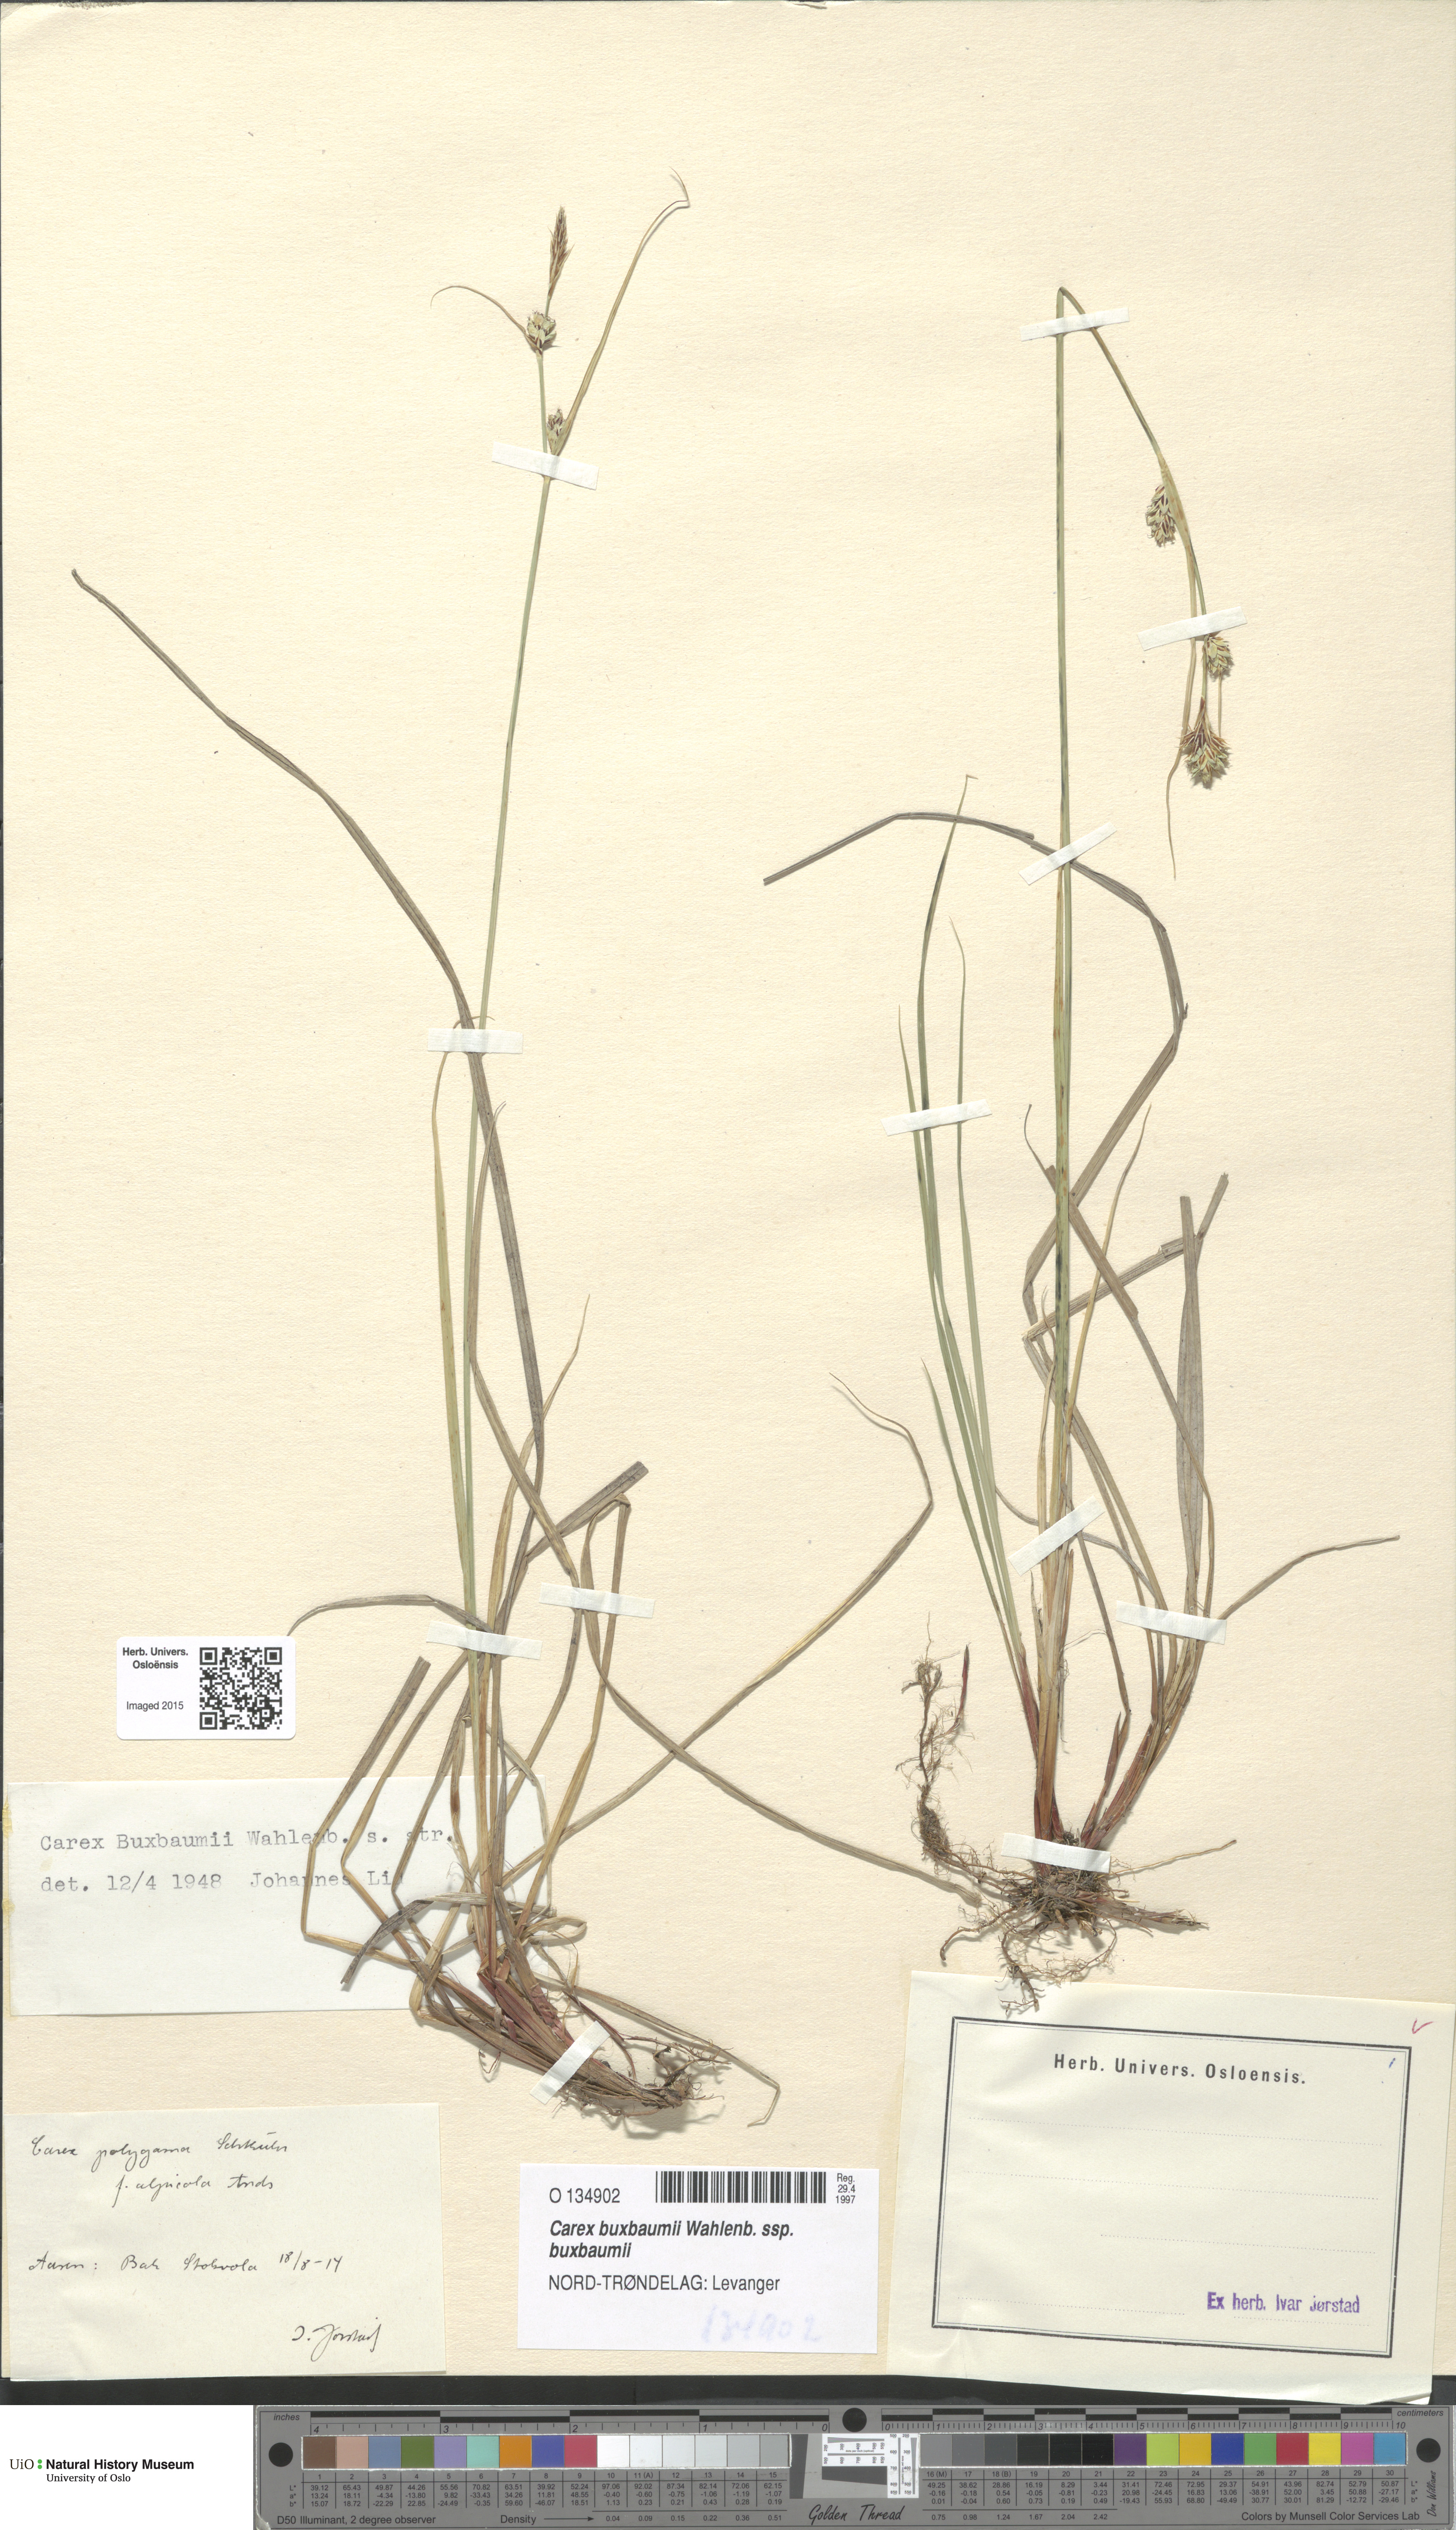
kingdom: Plantae
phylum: Tracheophyta
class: Liliopsida
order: Poales
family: Cyperaceae
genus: Carex
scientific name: Carex buxbaumii
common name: Club sedge
